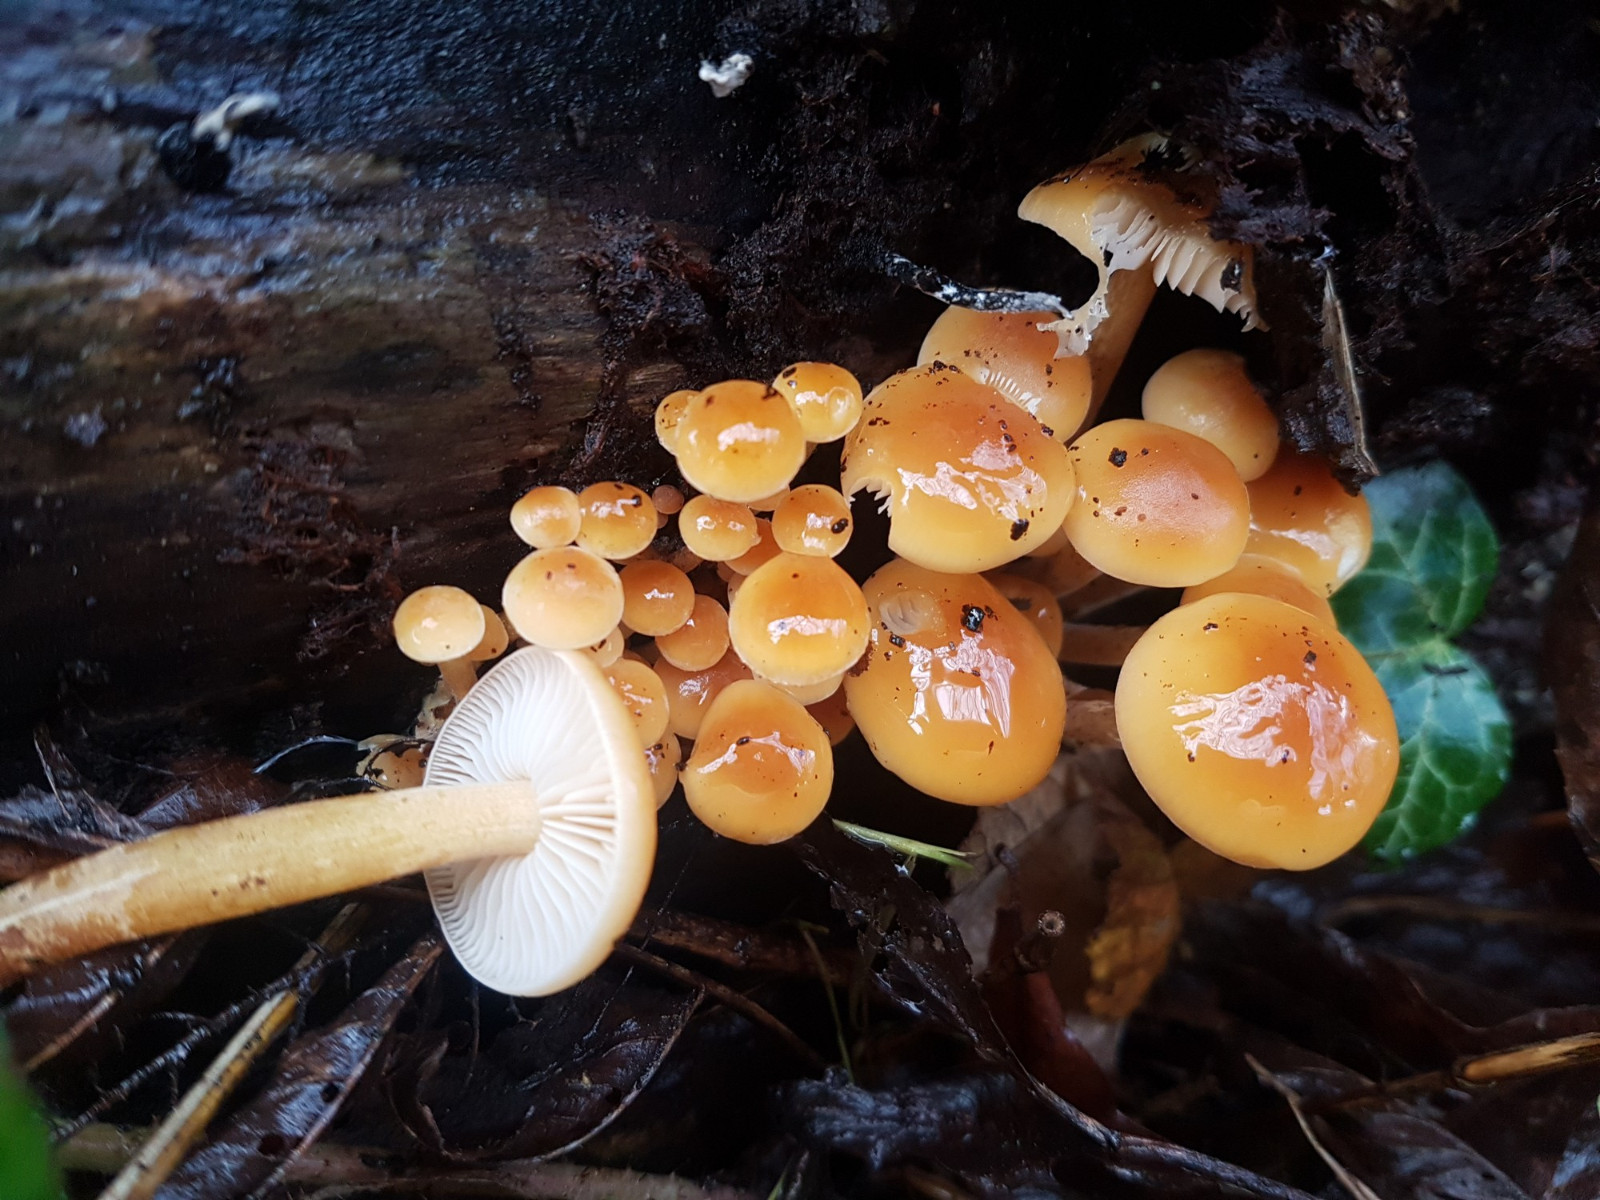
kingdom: Fungi
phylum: Basidiomycota
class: Agaricomycetes
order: Agaricales
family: Physalacriaceae
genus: Flammulina
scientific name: Flammulina velutipes
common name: gul fløjlsfod
